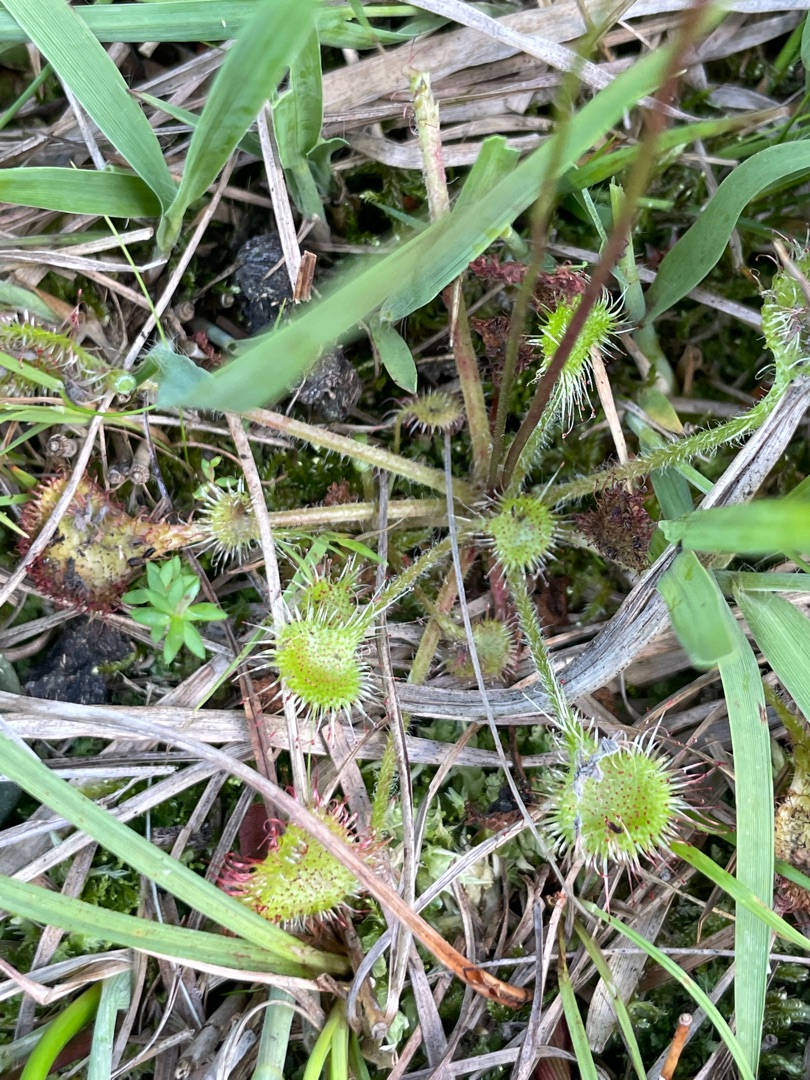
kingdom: Plantae
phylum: Tracheophyta
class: Magnoliopsida
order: Caryophyllales
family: Droseraceae
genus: Drosera
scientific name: Drosera rotundifolia
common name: Rundbladet soldug
